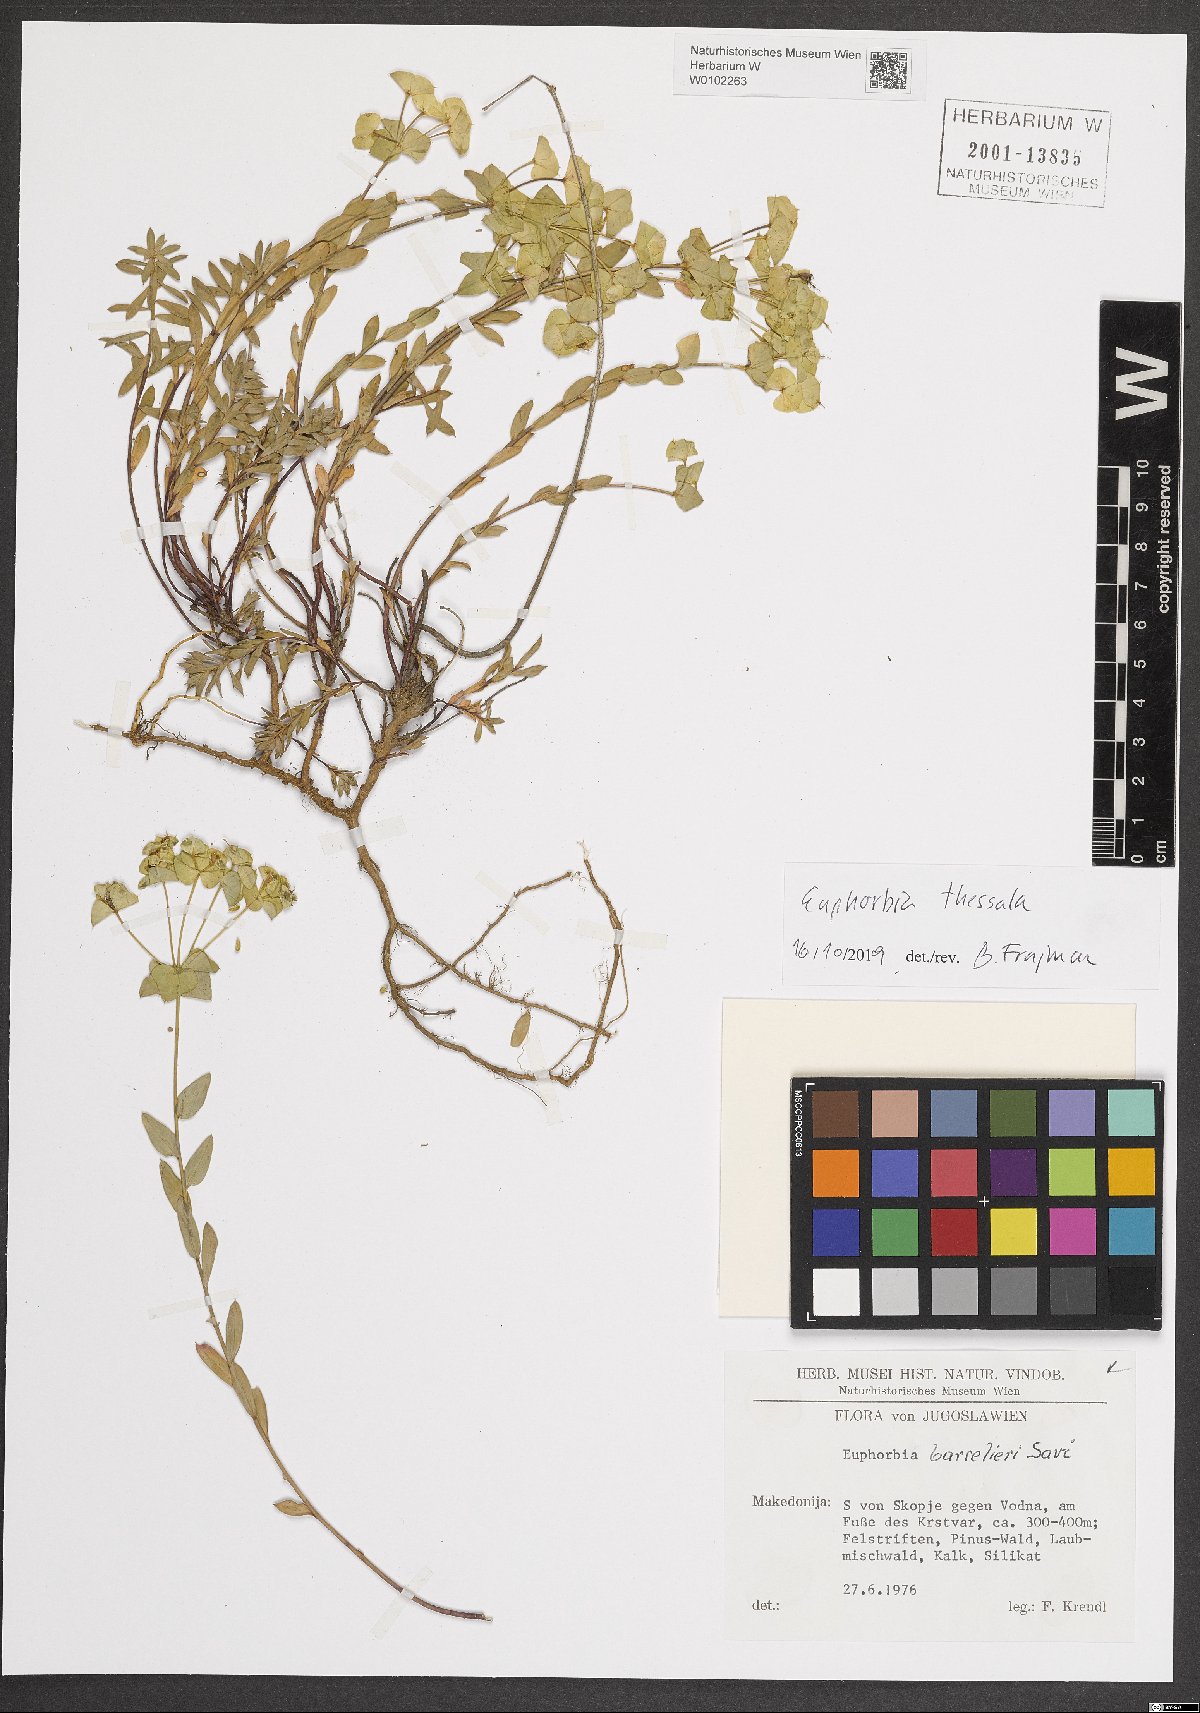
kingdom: Plantae
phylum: Tracheophyta
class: Magnoliopsida
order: Malpighiales
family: Euphorbiaceae
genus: Euphorbia
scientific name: Euphorbia barrelieri
